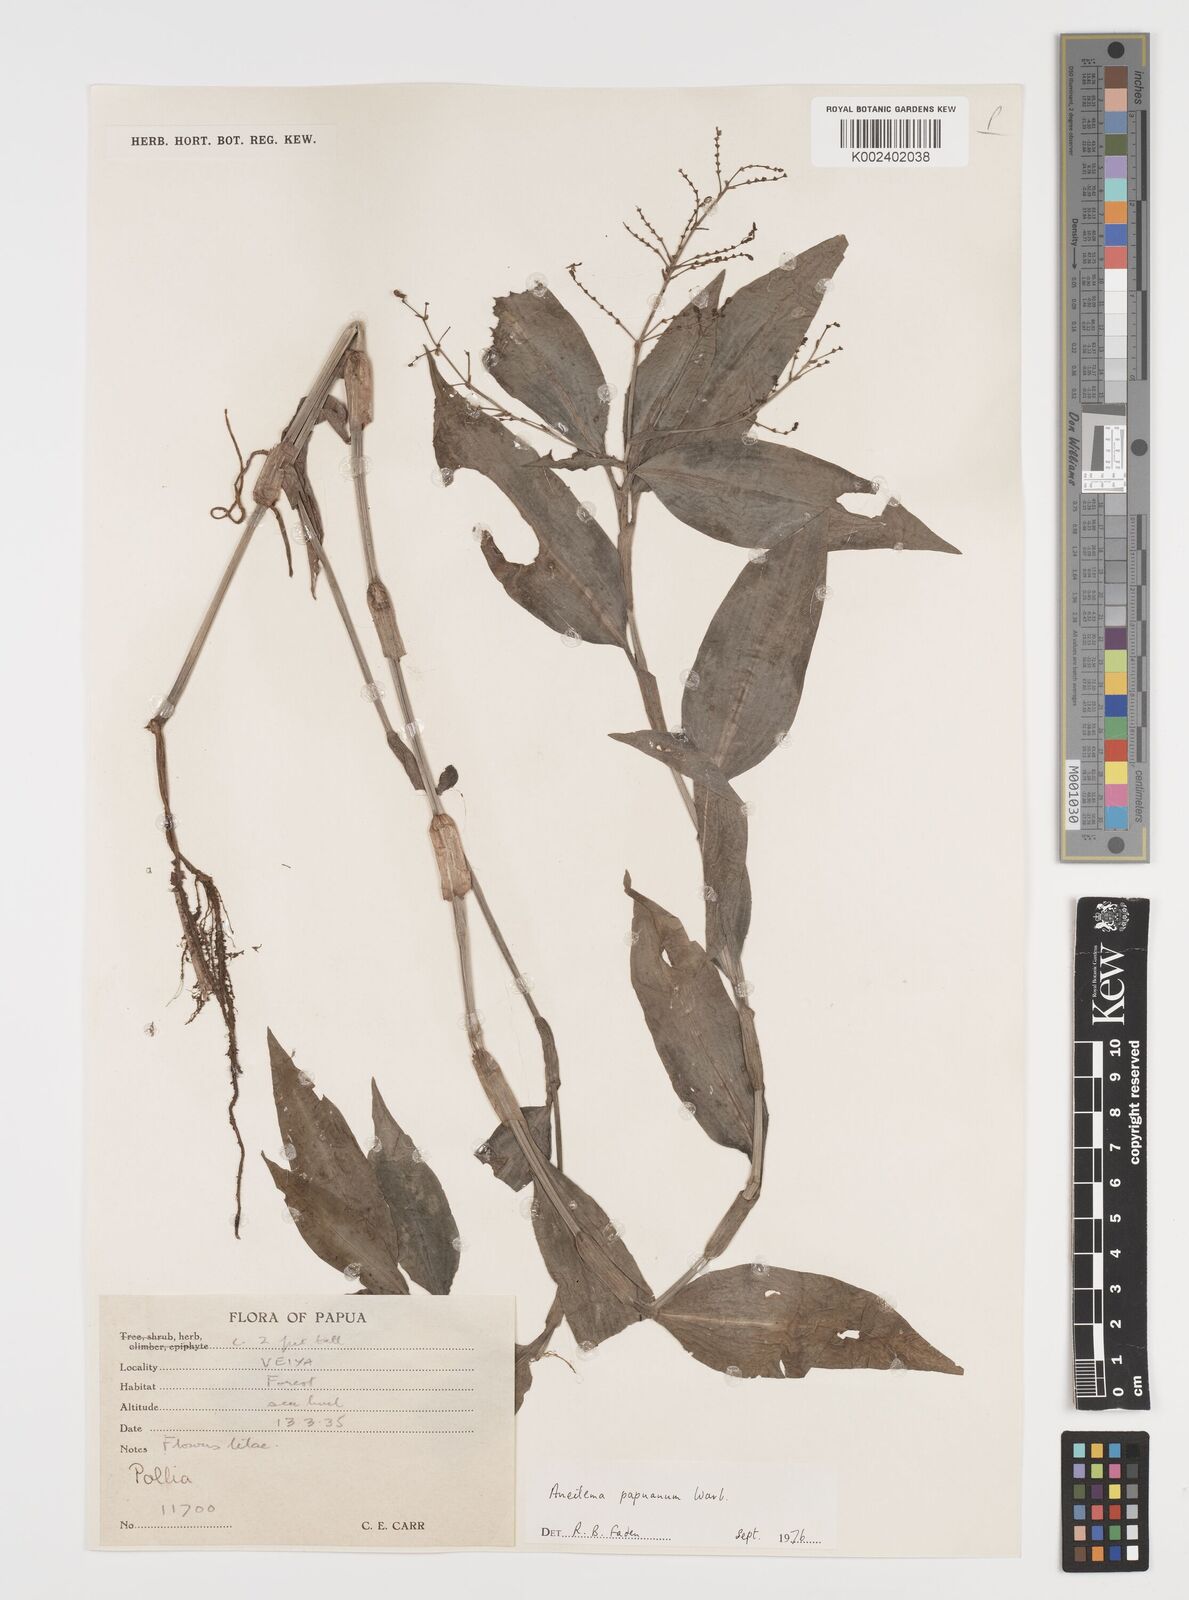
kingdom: Plantae
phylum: Tracheophyta
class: Liliopsida
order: Commelinales
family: Commelinaceae
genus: Aneilema
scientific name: Aneilema acuminatum
